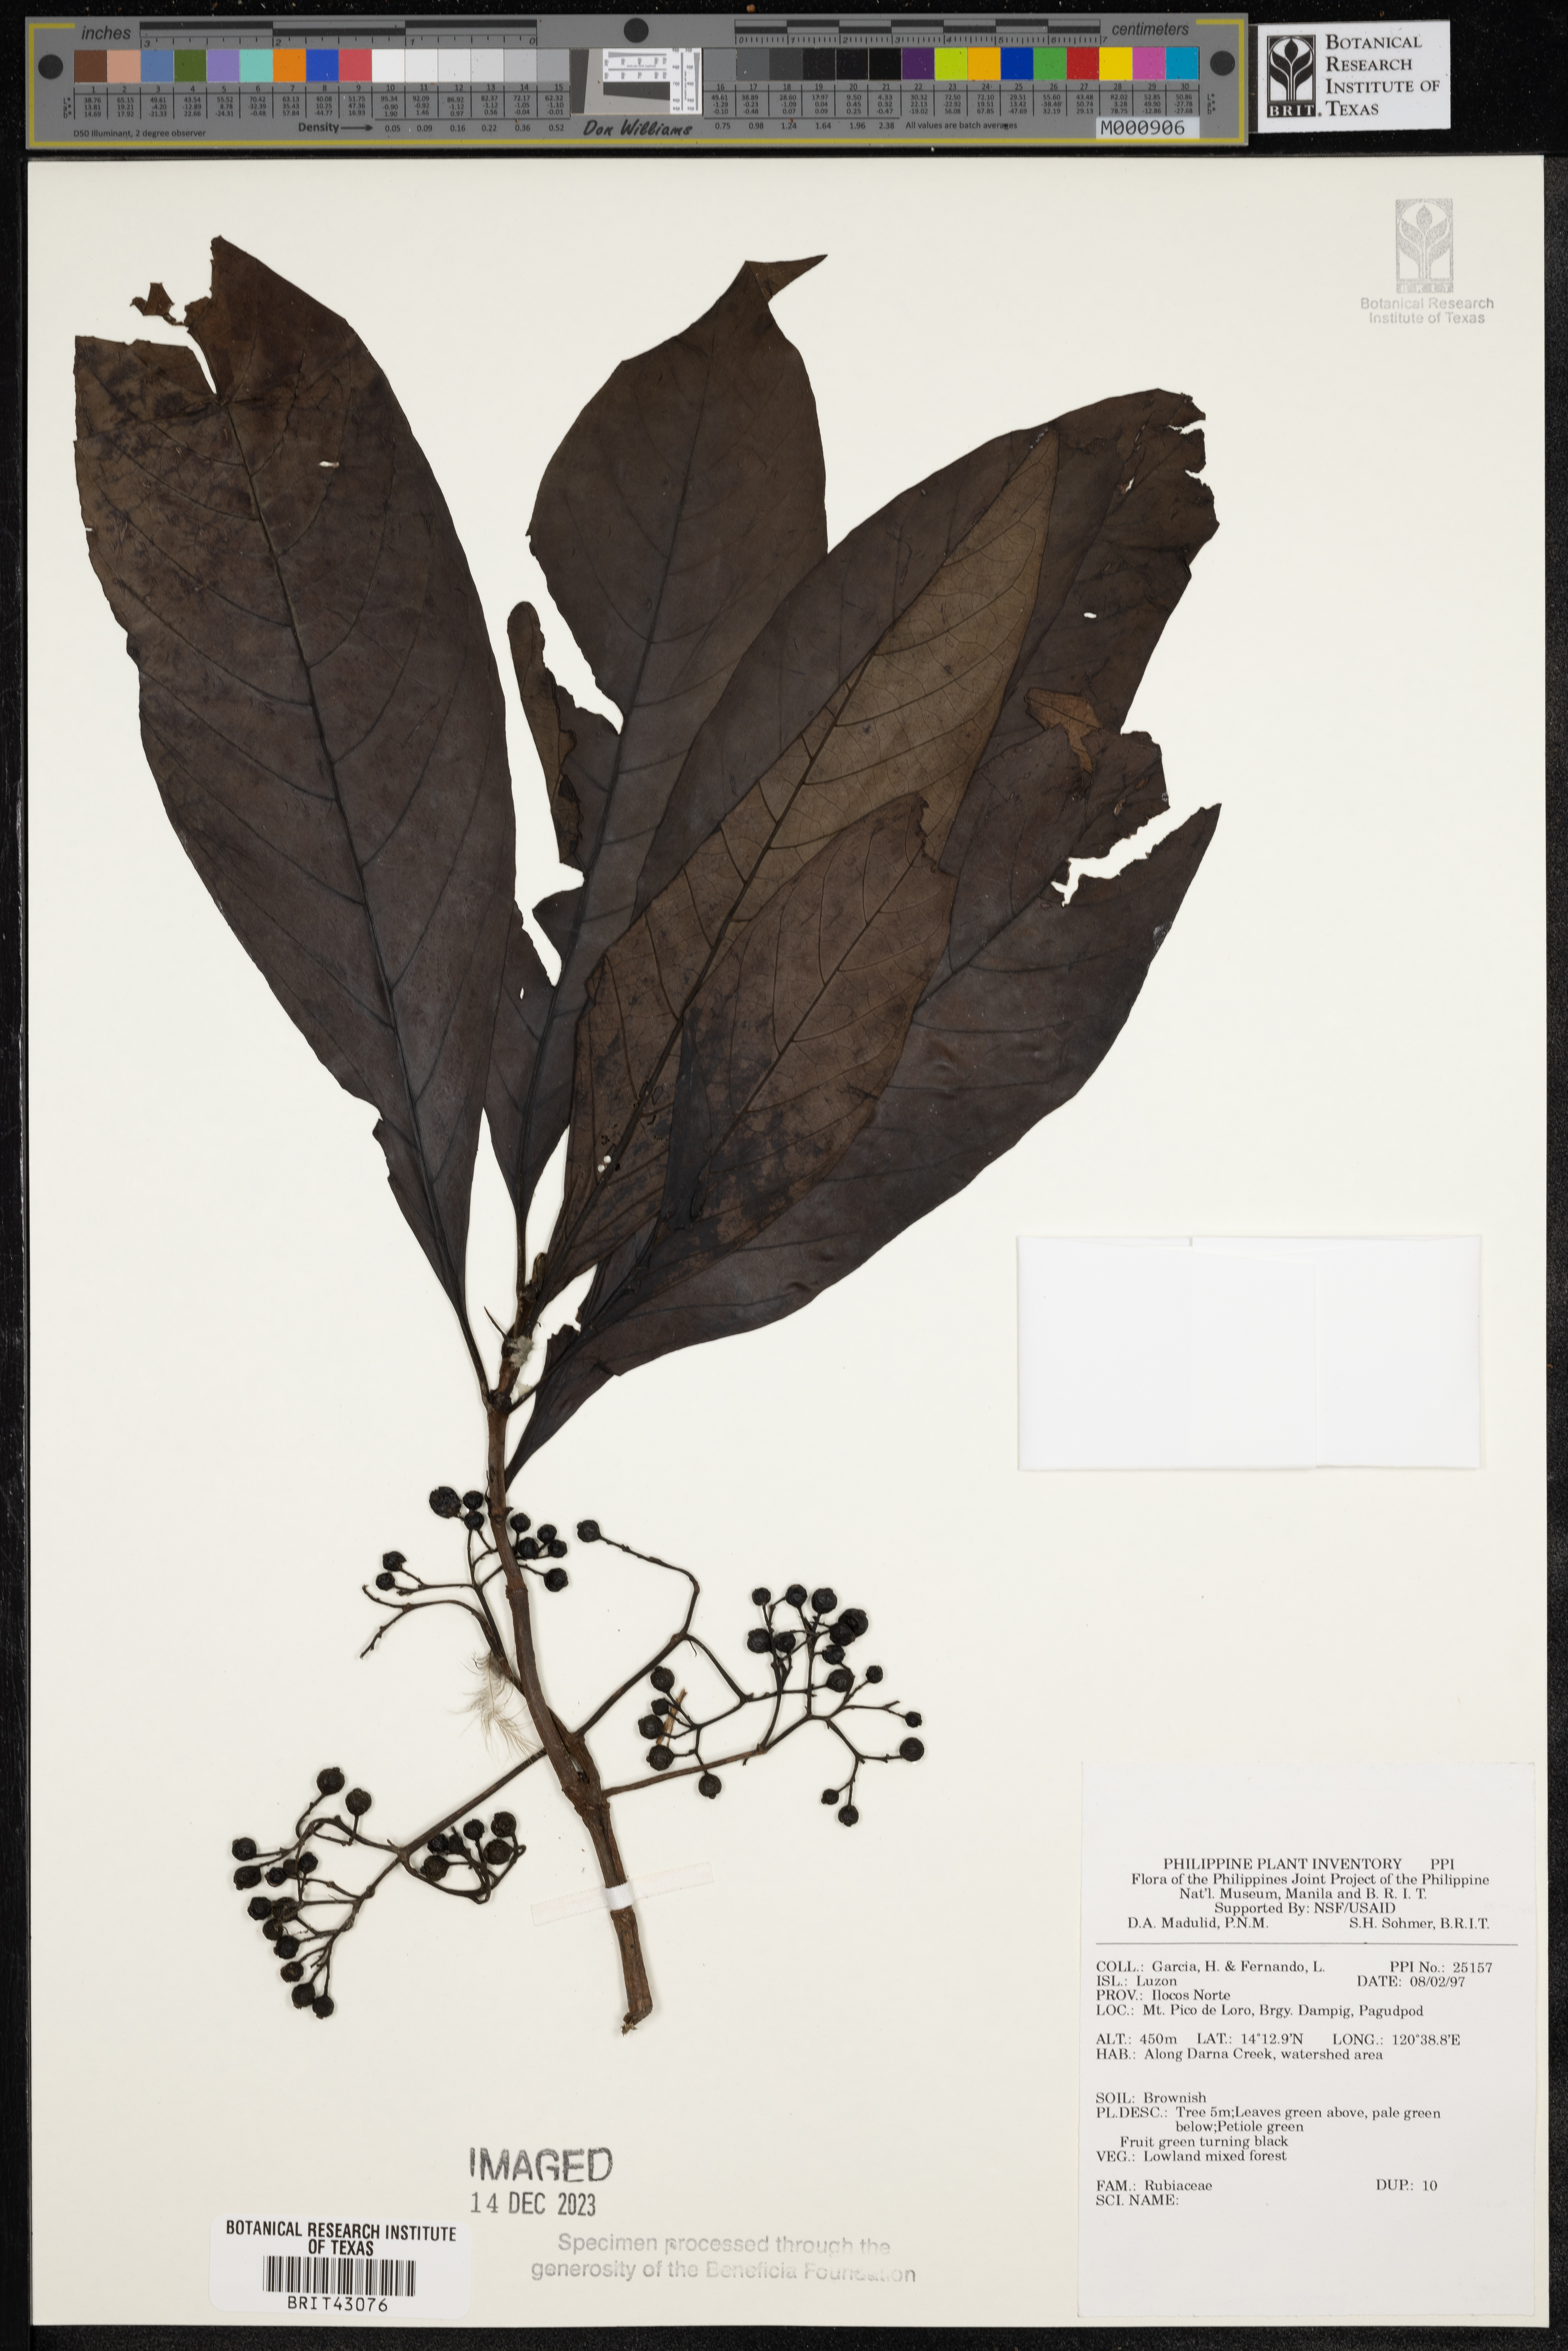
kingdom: Plantae
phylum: Tracheophyta
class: Magnoliopsida
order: Gentianales
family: Rubiaceae
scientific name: Rubiaceae
